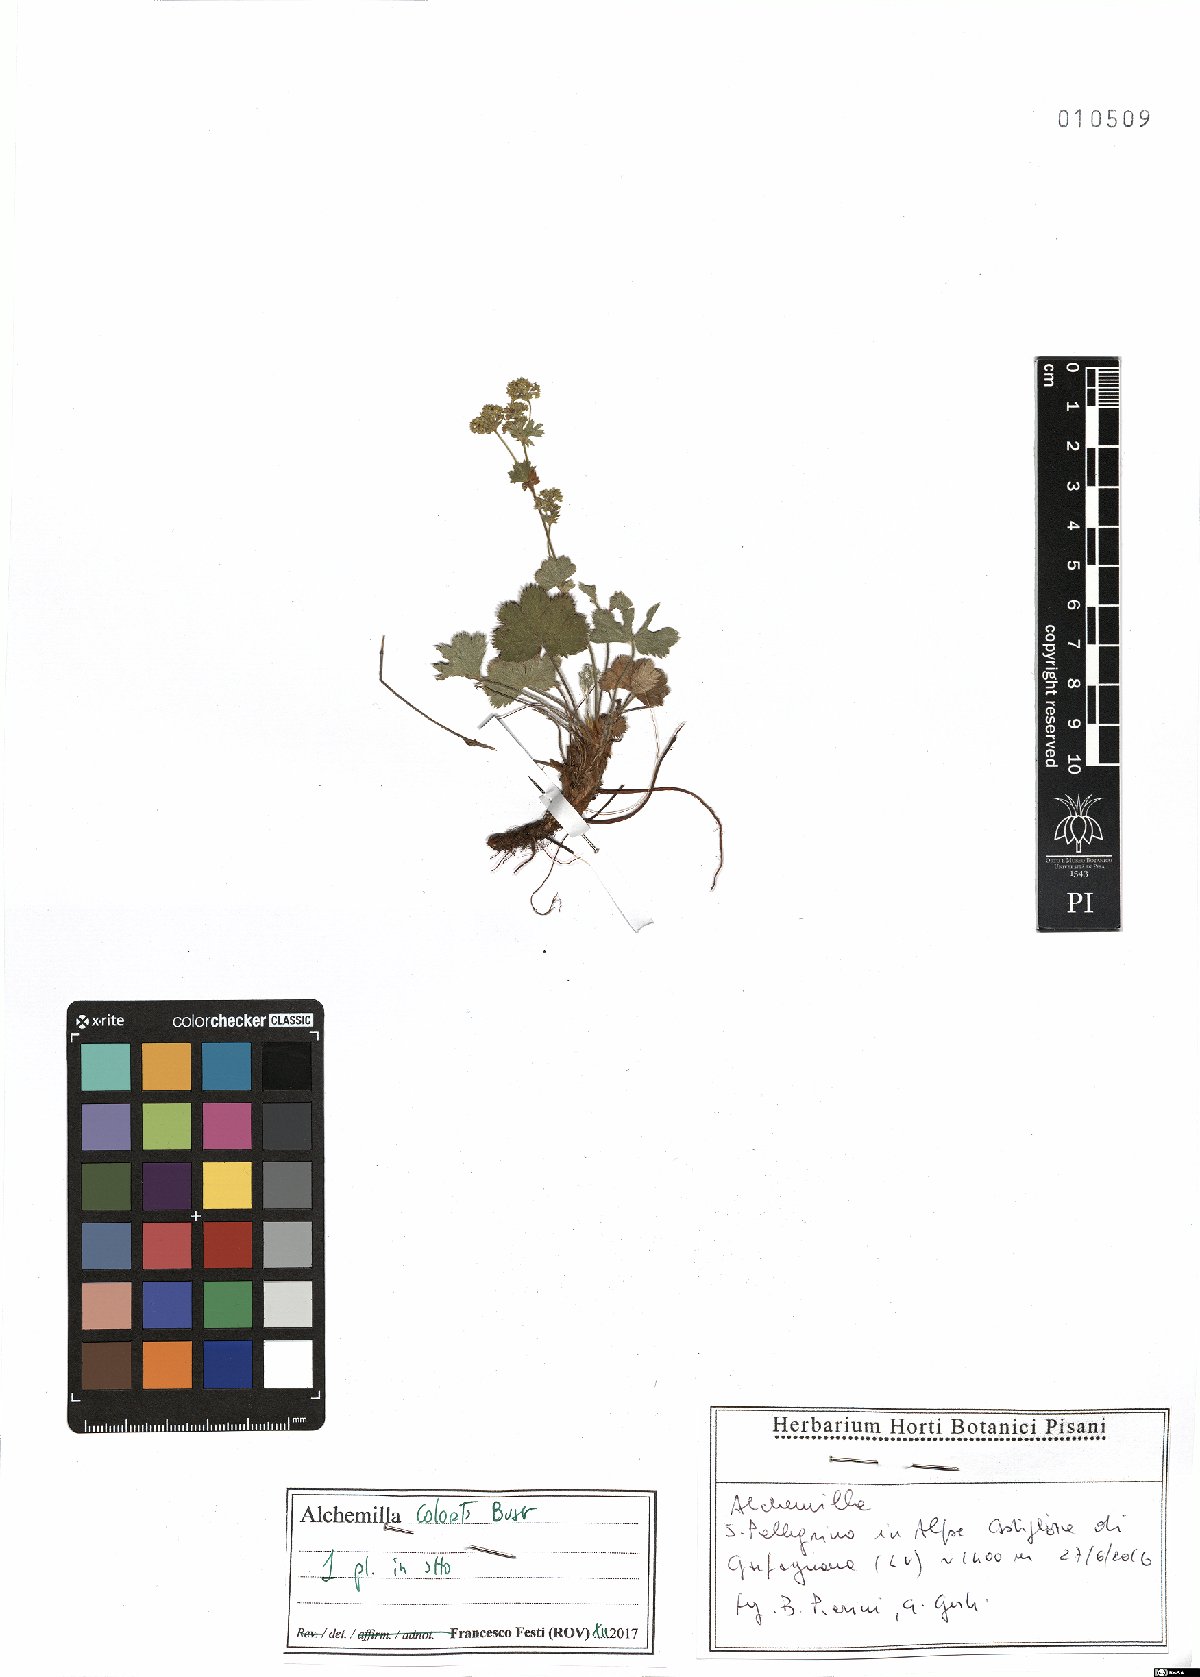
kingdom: Plantae
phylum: Tracheophyta
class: Magnoliopsida
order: Rosales
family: Rosaceae
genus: Alchemilla
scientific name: Alchemilla colorata
